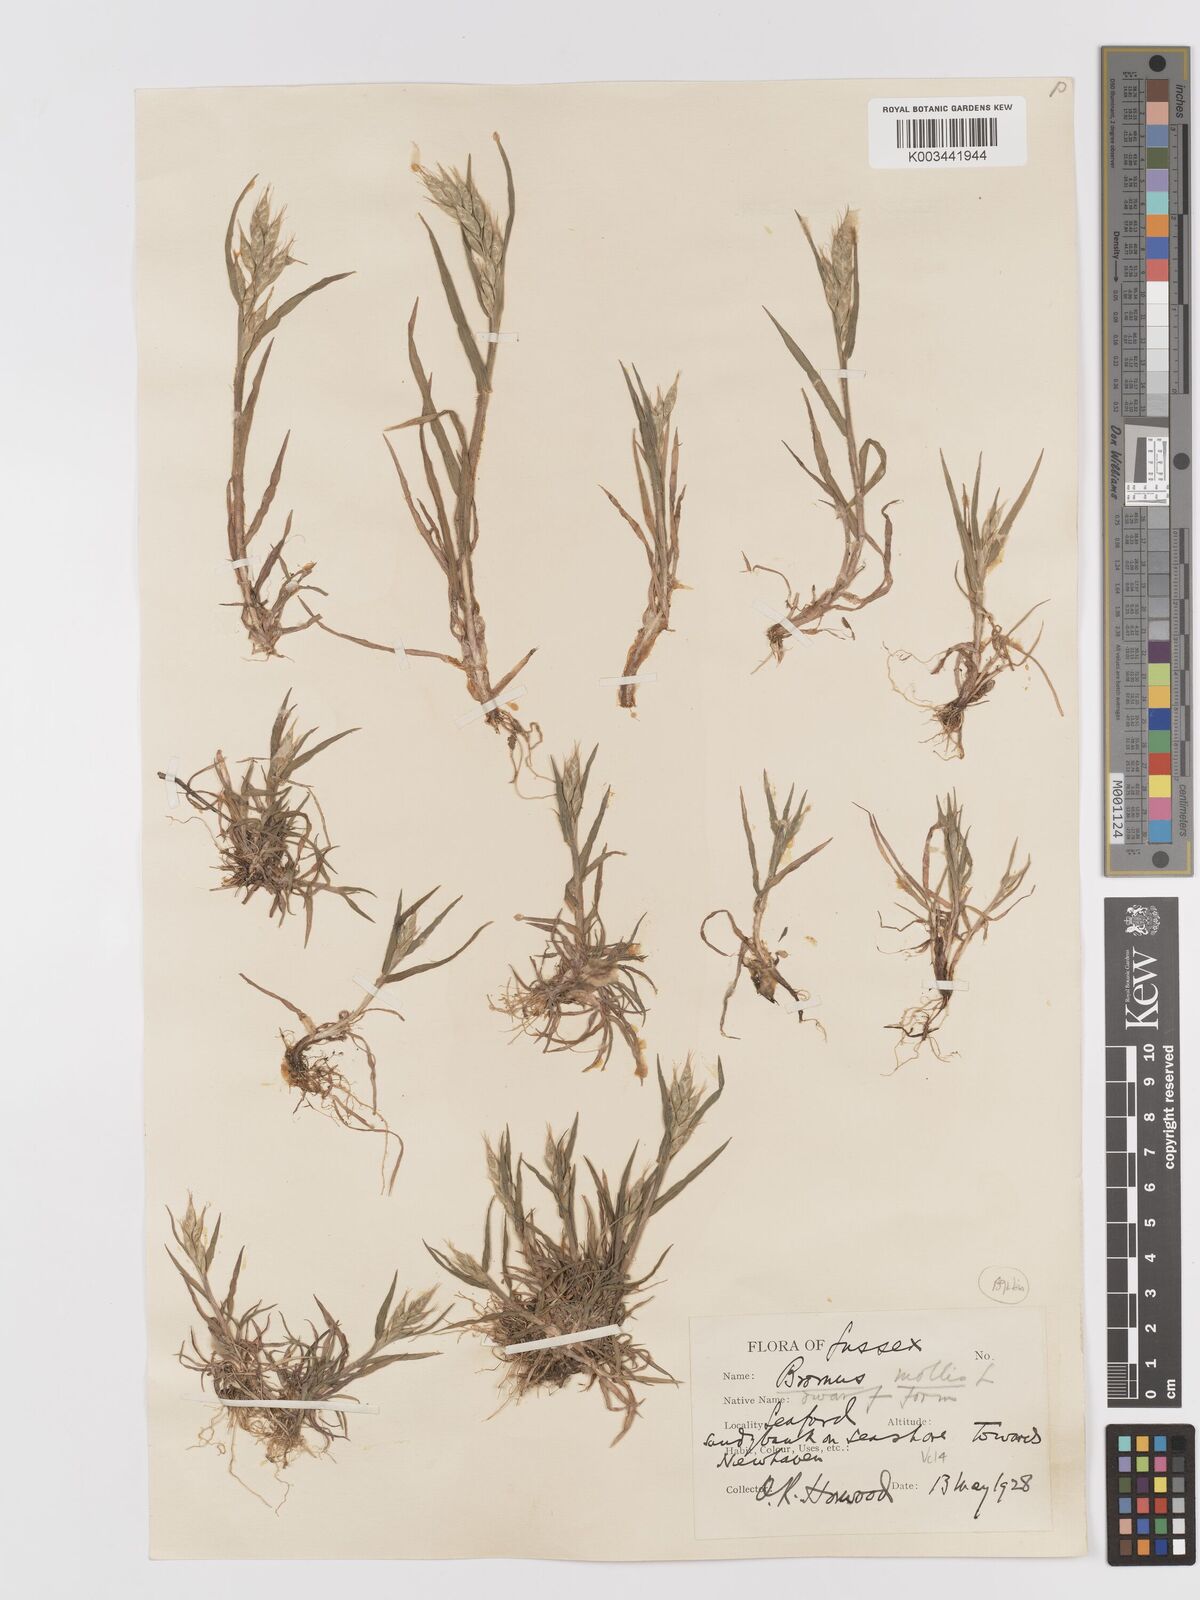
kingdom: Plantae
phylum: Tracheophyta
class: Liliopsida
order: Poales
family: Poaceae
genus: Bromus
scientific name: Bromus hordeaceus
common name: Soft brome
